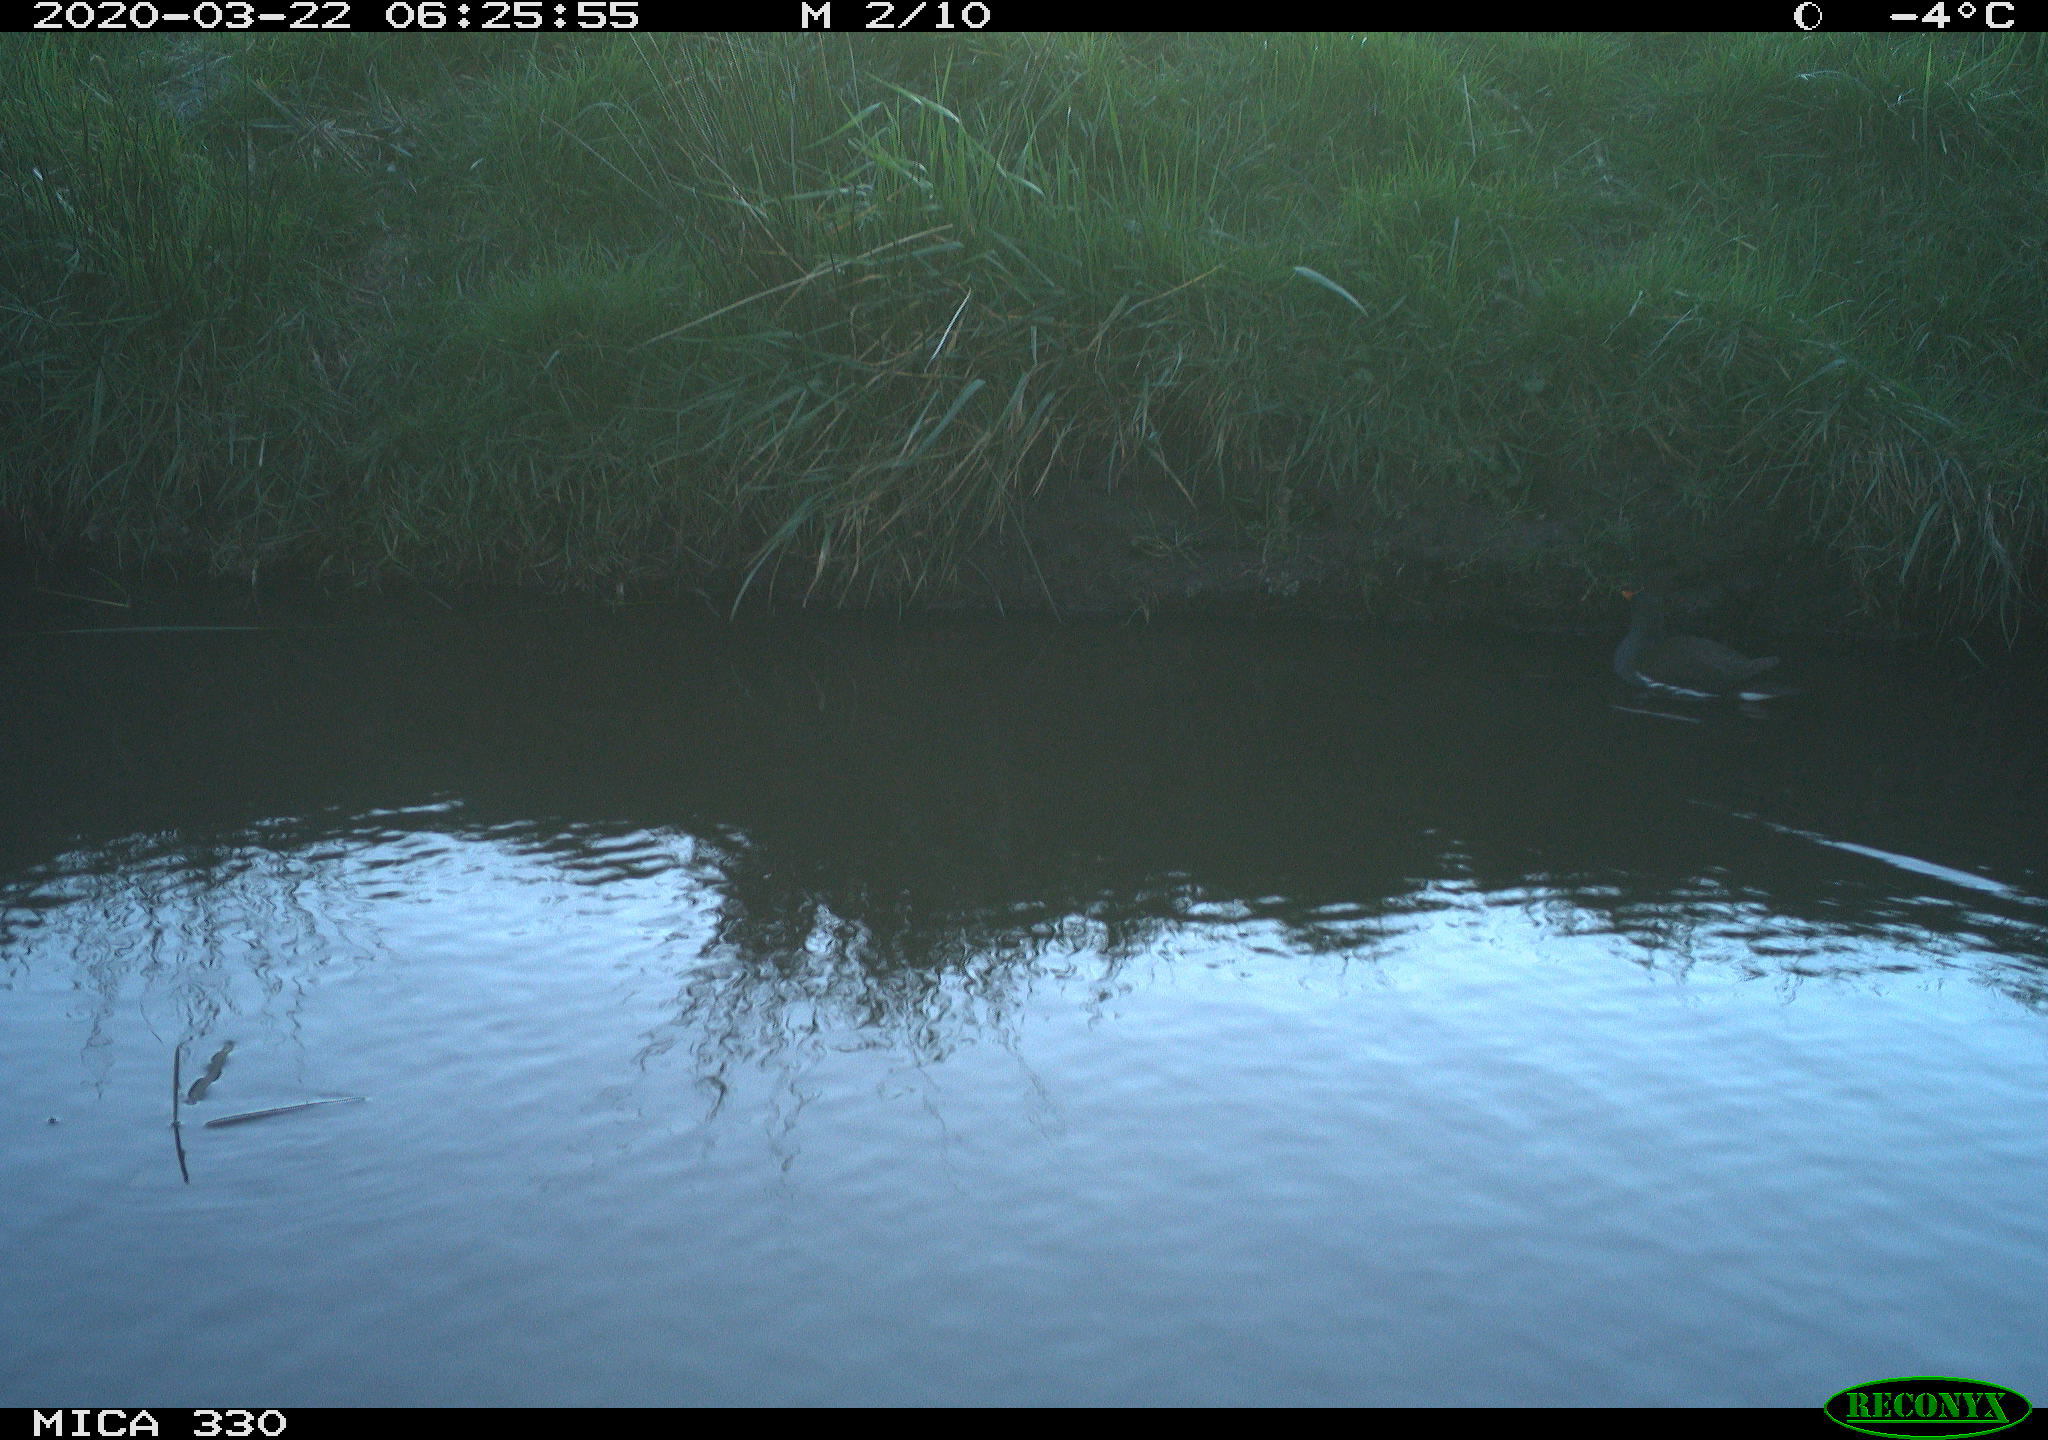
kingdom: Animalia
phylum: Chordata
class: Aves
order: Gruiformes
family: Rallidae
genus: Gallinula
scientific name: Gallinula chloropus
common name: Common moorhen
